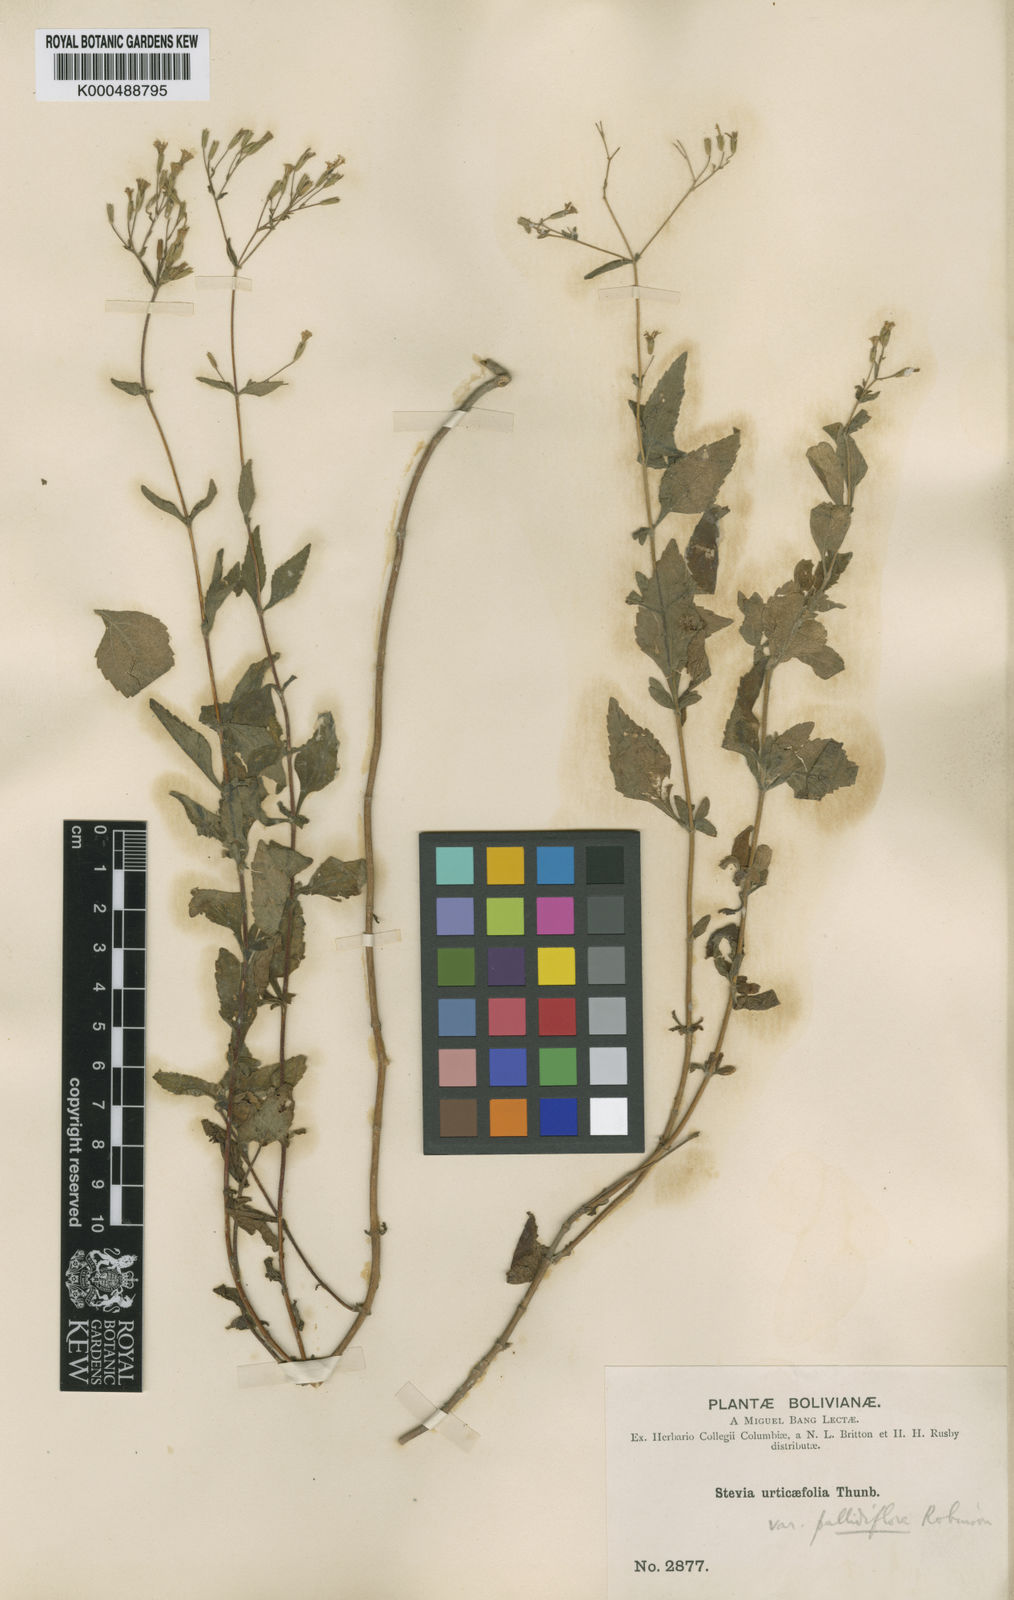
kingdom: Plantae
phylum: Tracheophyta
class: Magnoliopsida
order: Asterales
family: Asteraceae
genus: Stevia
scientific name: Stevia urticifolia
